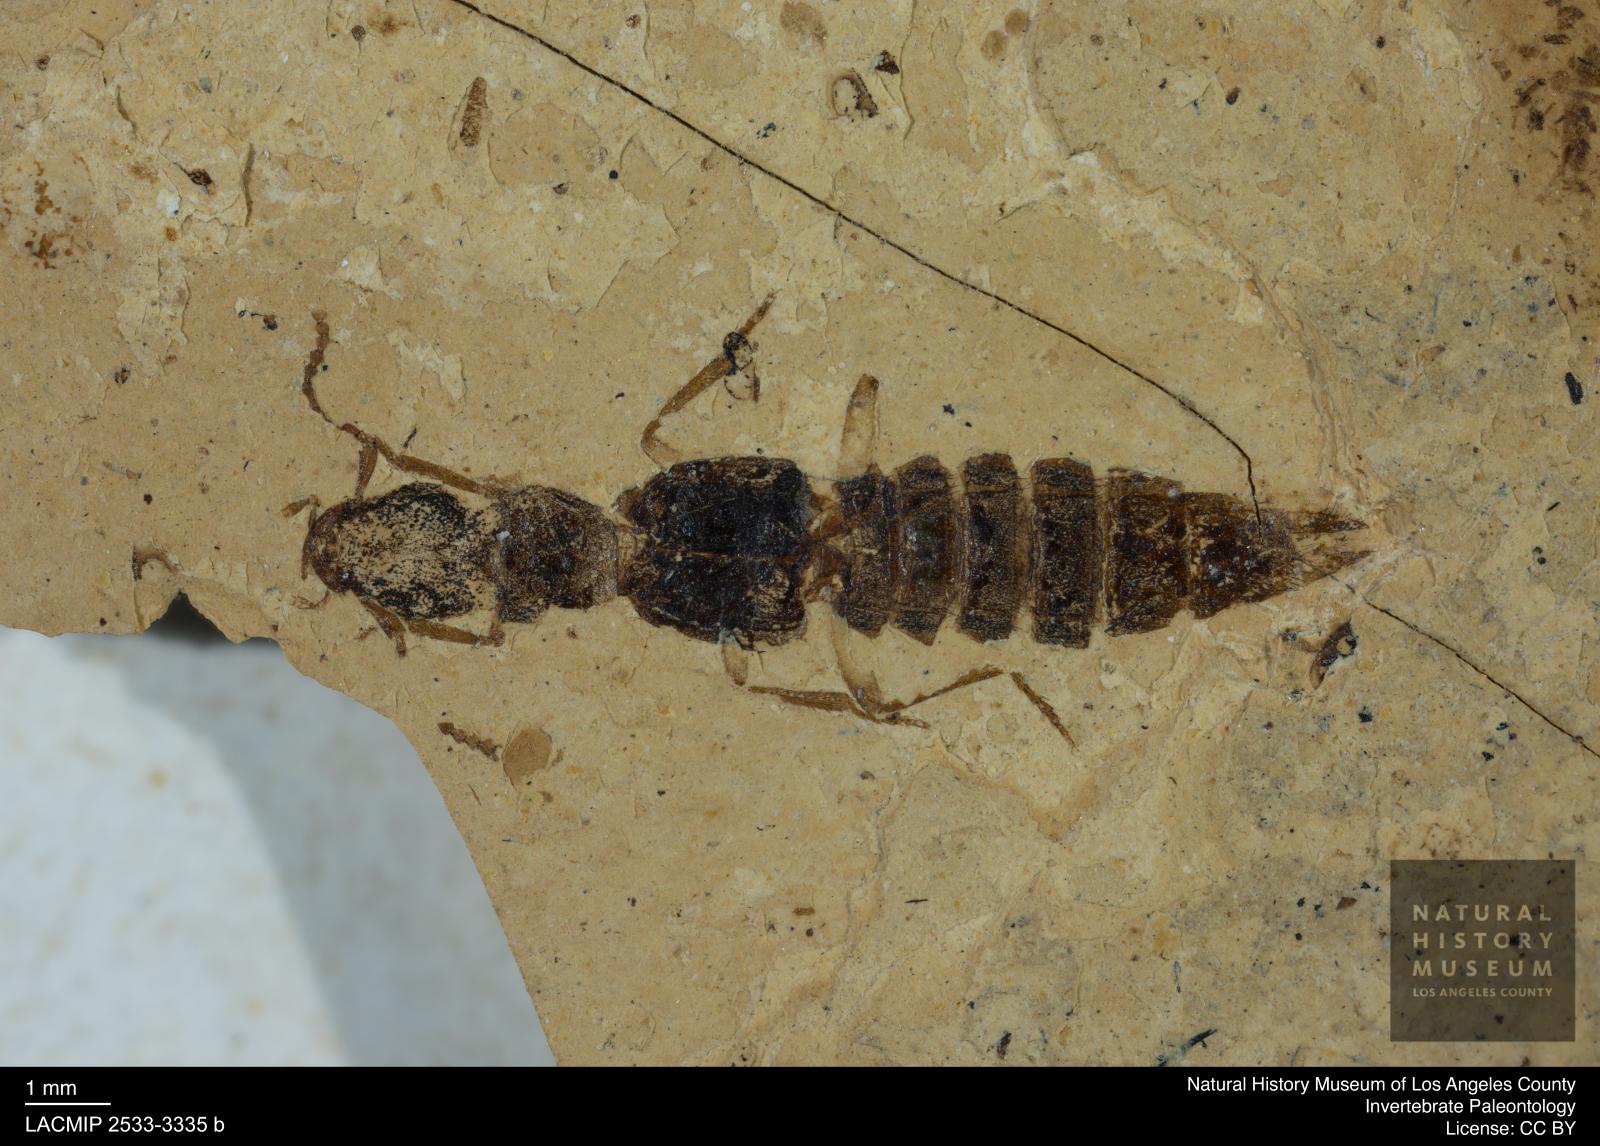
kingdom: Animalia
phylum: Arthropoda
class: Insecta
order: Coleoptera
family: Staphylinidae
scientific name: Staphylinidae
